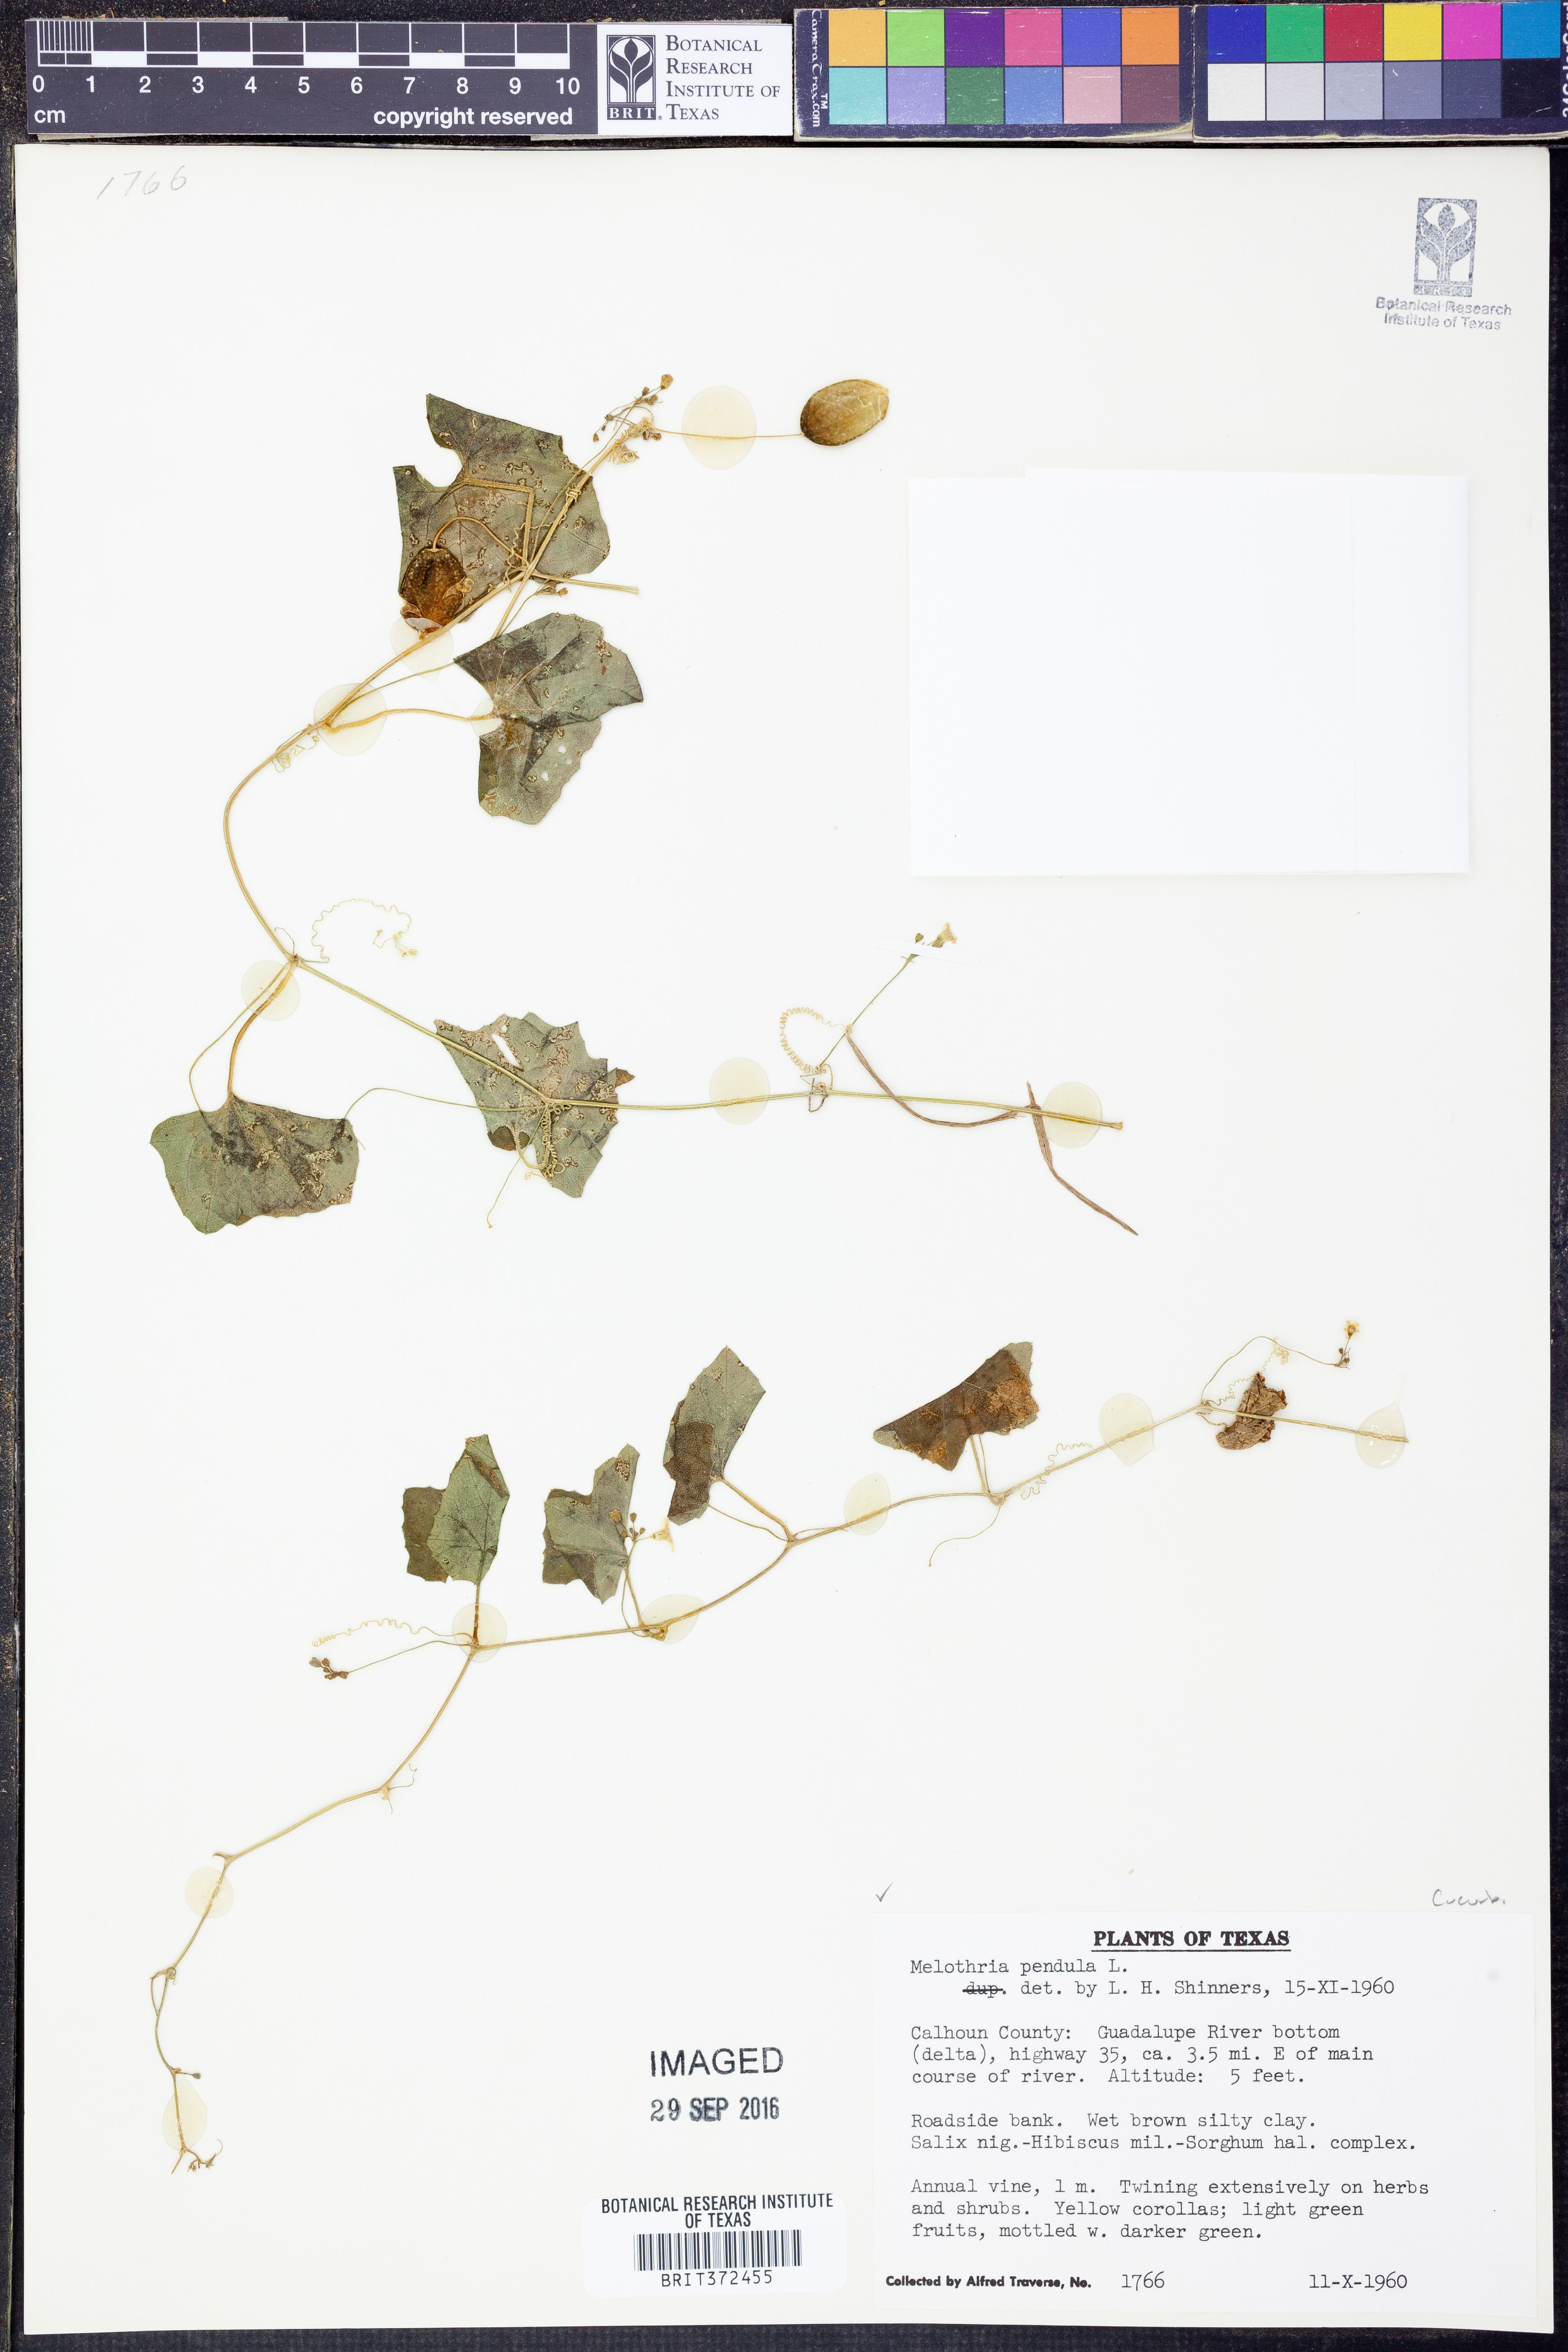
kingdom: Plantae
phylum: Tracheophyta
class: Magnoliopsida
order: Cucurbitales
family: Cucurbitaceae
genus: Melothria
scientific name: Melothria pendula
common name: Creeping-cucumber
